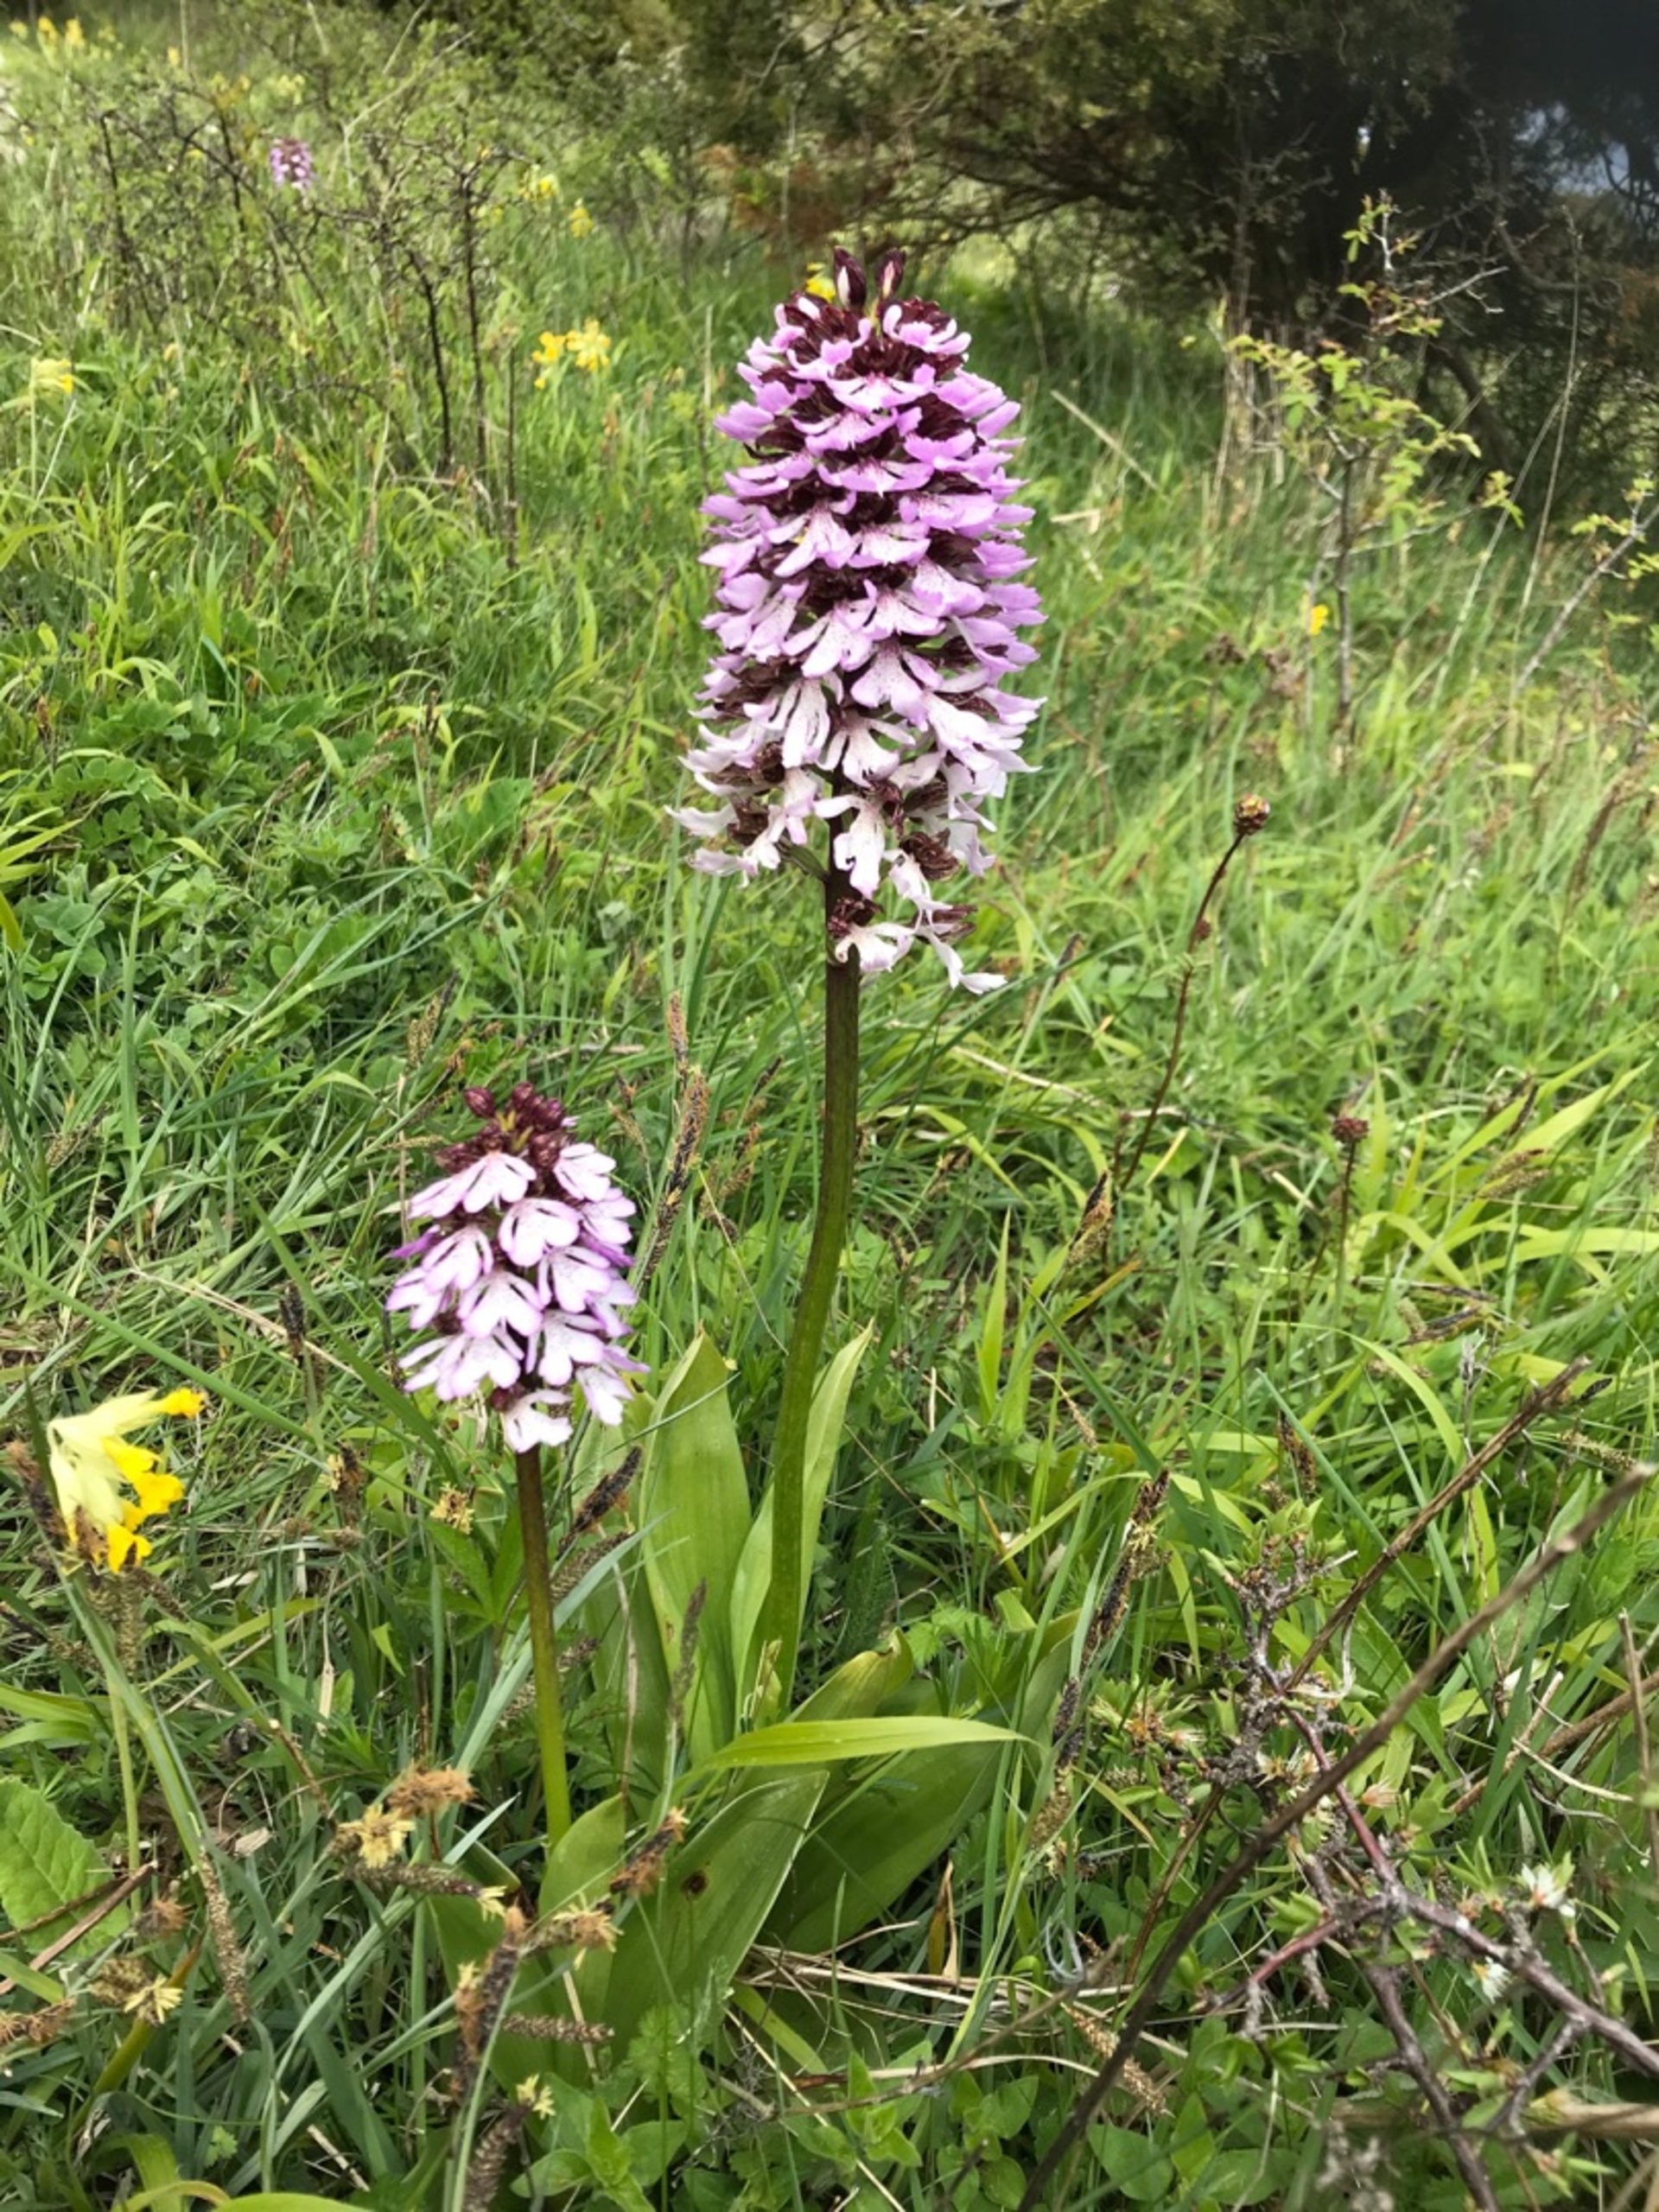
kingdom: Plantae
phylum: Tracheophyta
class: Liliopsida
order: Asparagales
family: Orchidaceae
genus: Orchis
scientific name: Orchis purpurea
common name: Stor gøgeurt
